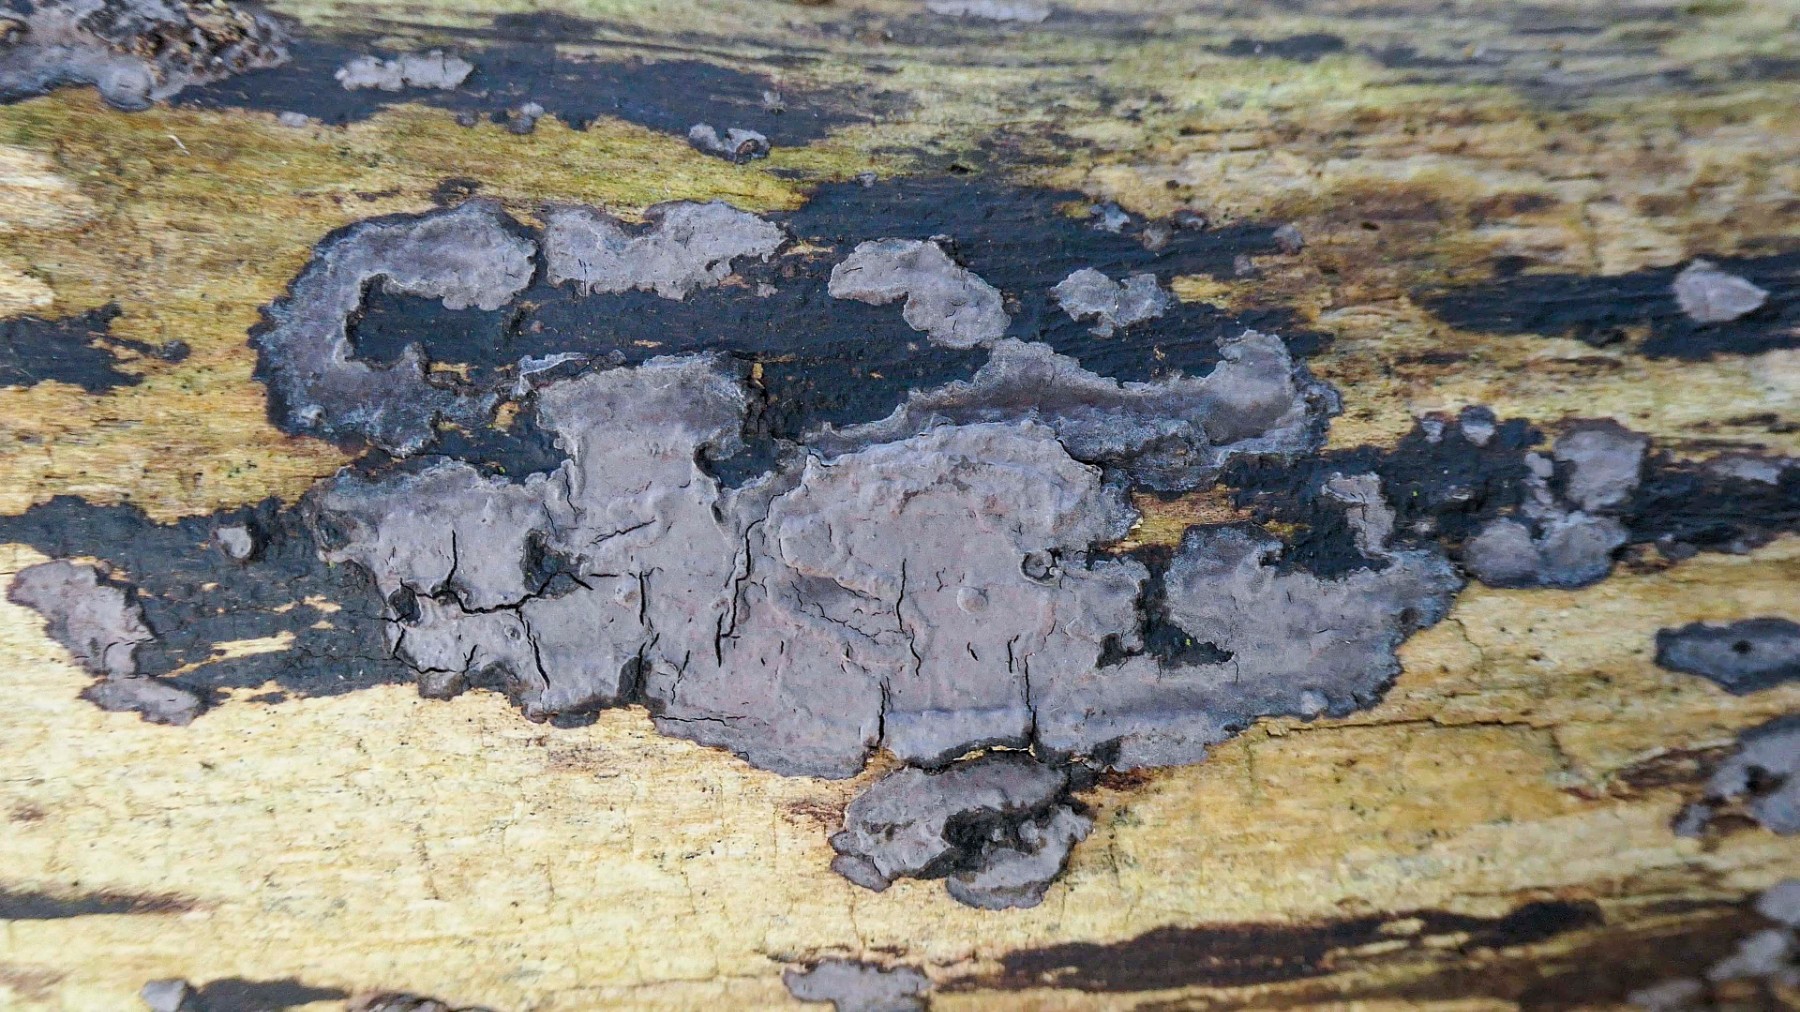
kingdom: Fungi
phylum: Basidiomycota
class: Agaricomycetes
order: Russulales
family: Peniophoraceae
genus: Peniophora
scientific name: Peniophora limitata
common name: mørkrandet voksskind
